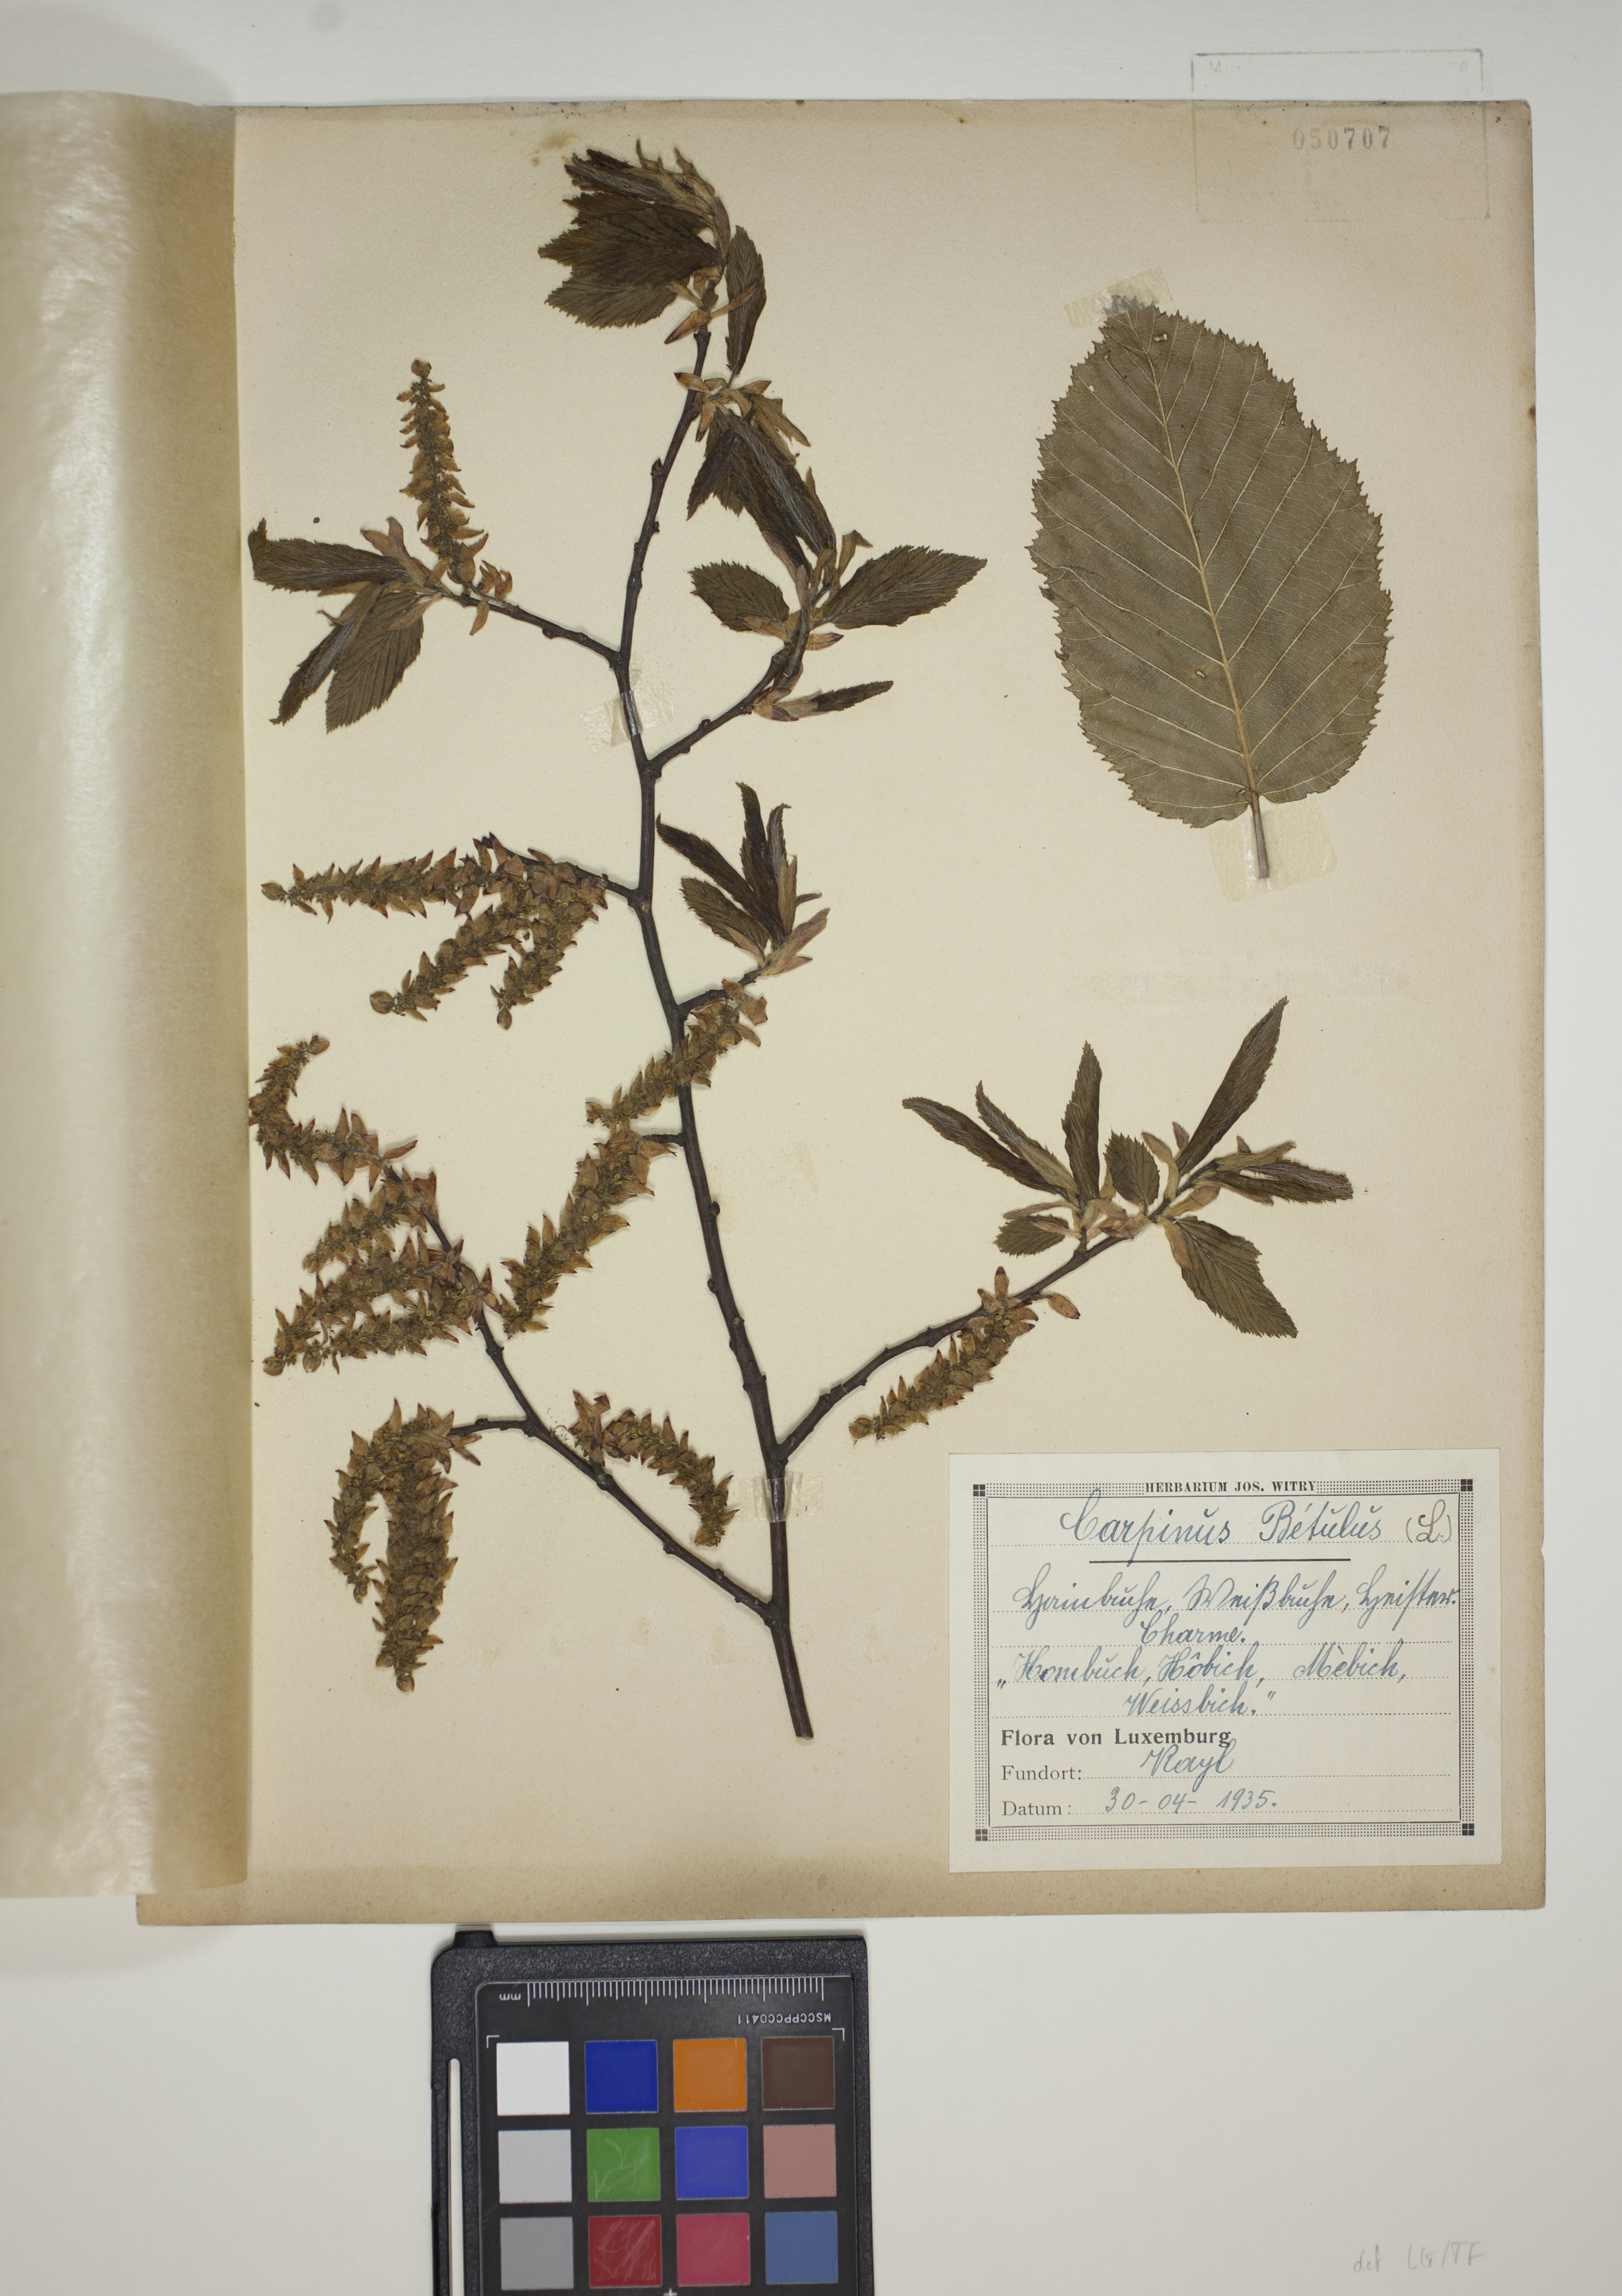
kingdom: Plantae
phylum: Tracheophyta
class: Magnoliopsida
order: Fagales
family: Betulaceae
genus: Carpinus
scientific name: Carpinus betulus
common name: Hornbeam
